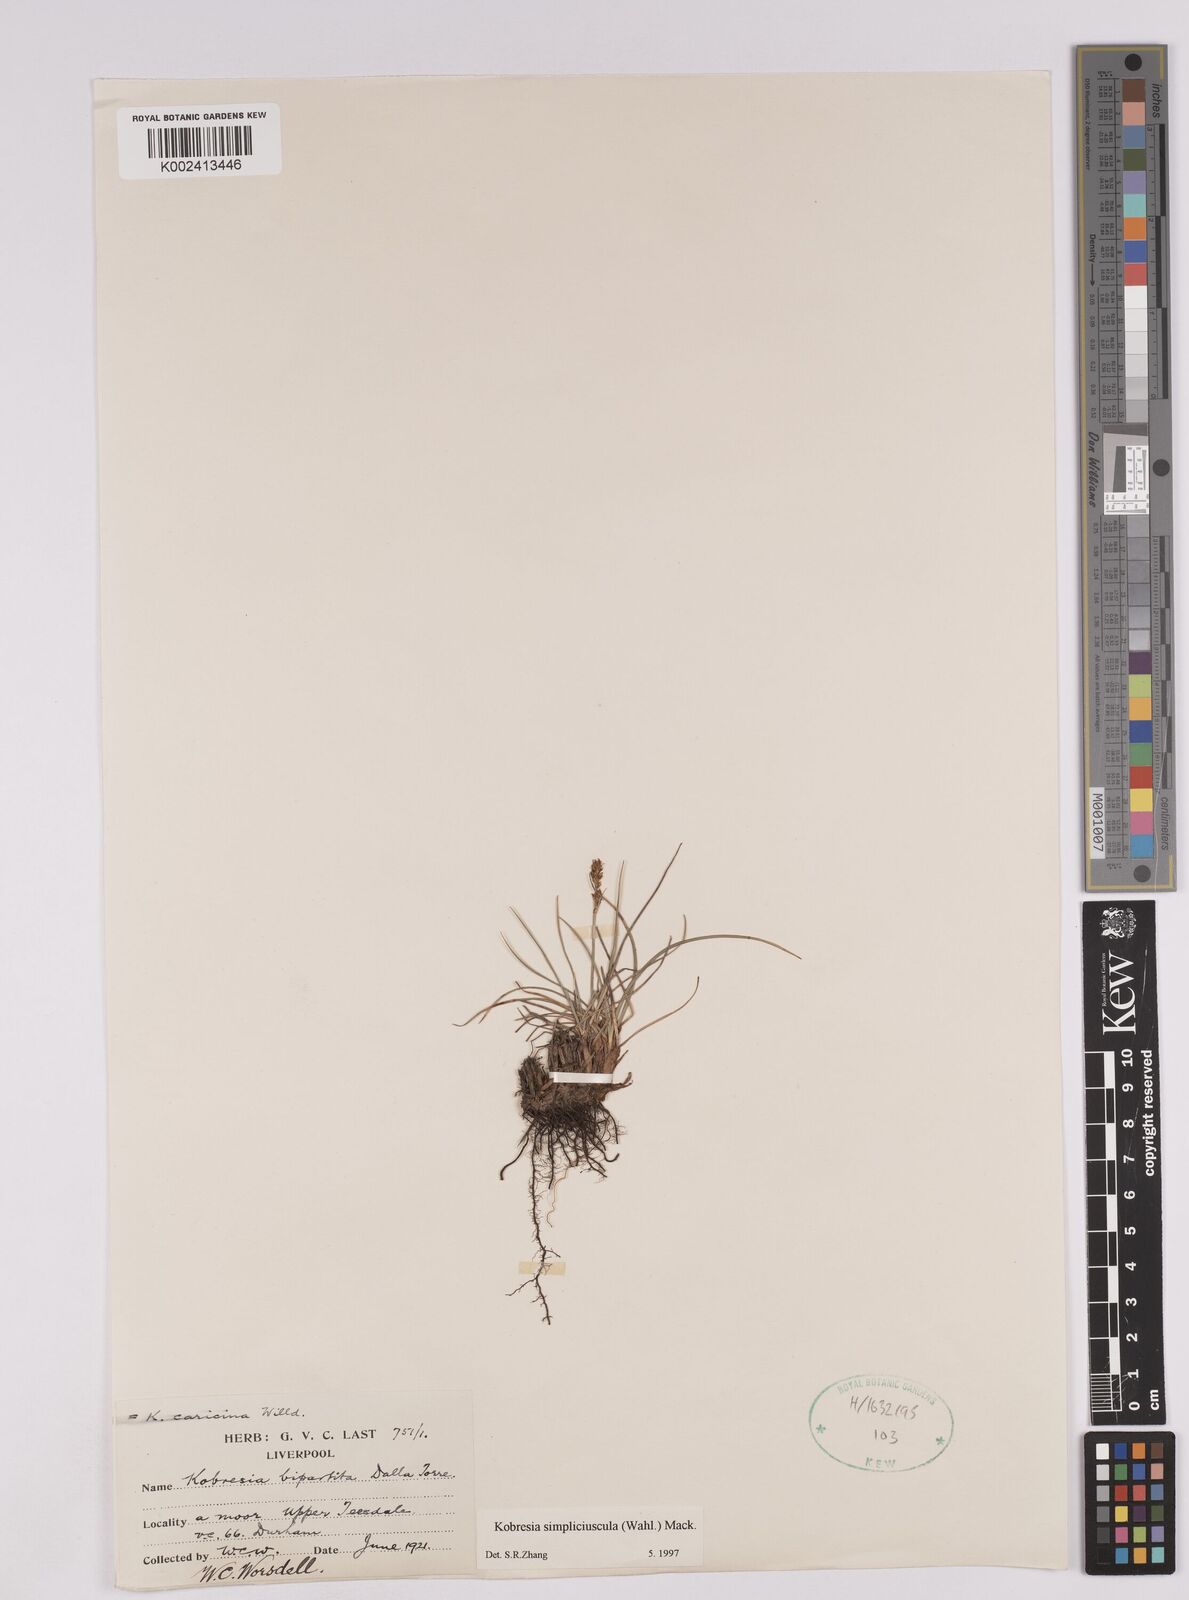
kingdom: Plantae
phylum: Tracheophyta
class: Liliopsida
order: Poales
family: Cyperaceae
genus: Carex
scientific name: Carex simpliciuscula
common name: Simple bog sedge
